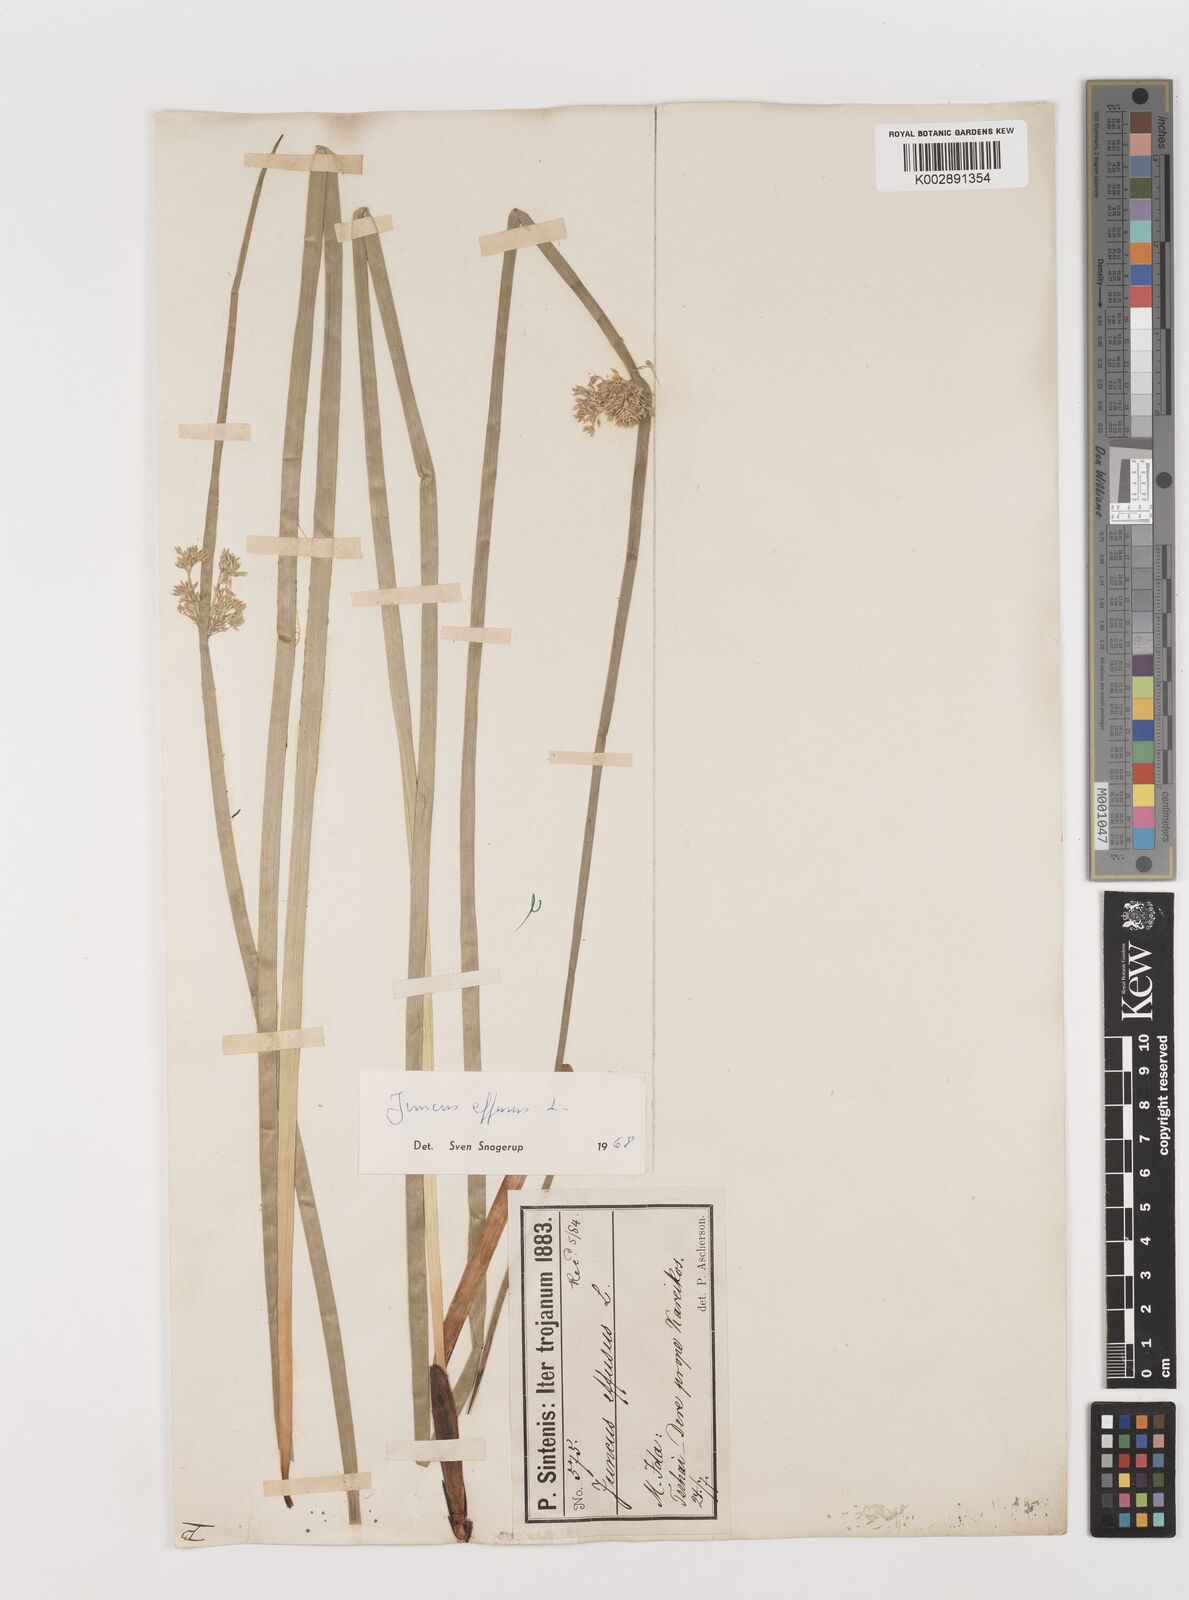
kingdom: Plantae
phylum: Tracheophyta
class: Liliopsida
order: Poales
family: Juncaceae
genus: Juncus
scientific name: Juncus effusus
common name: Soft rush
